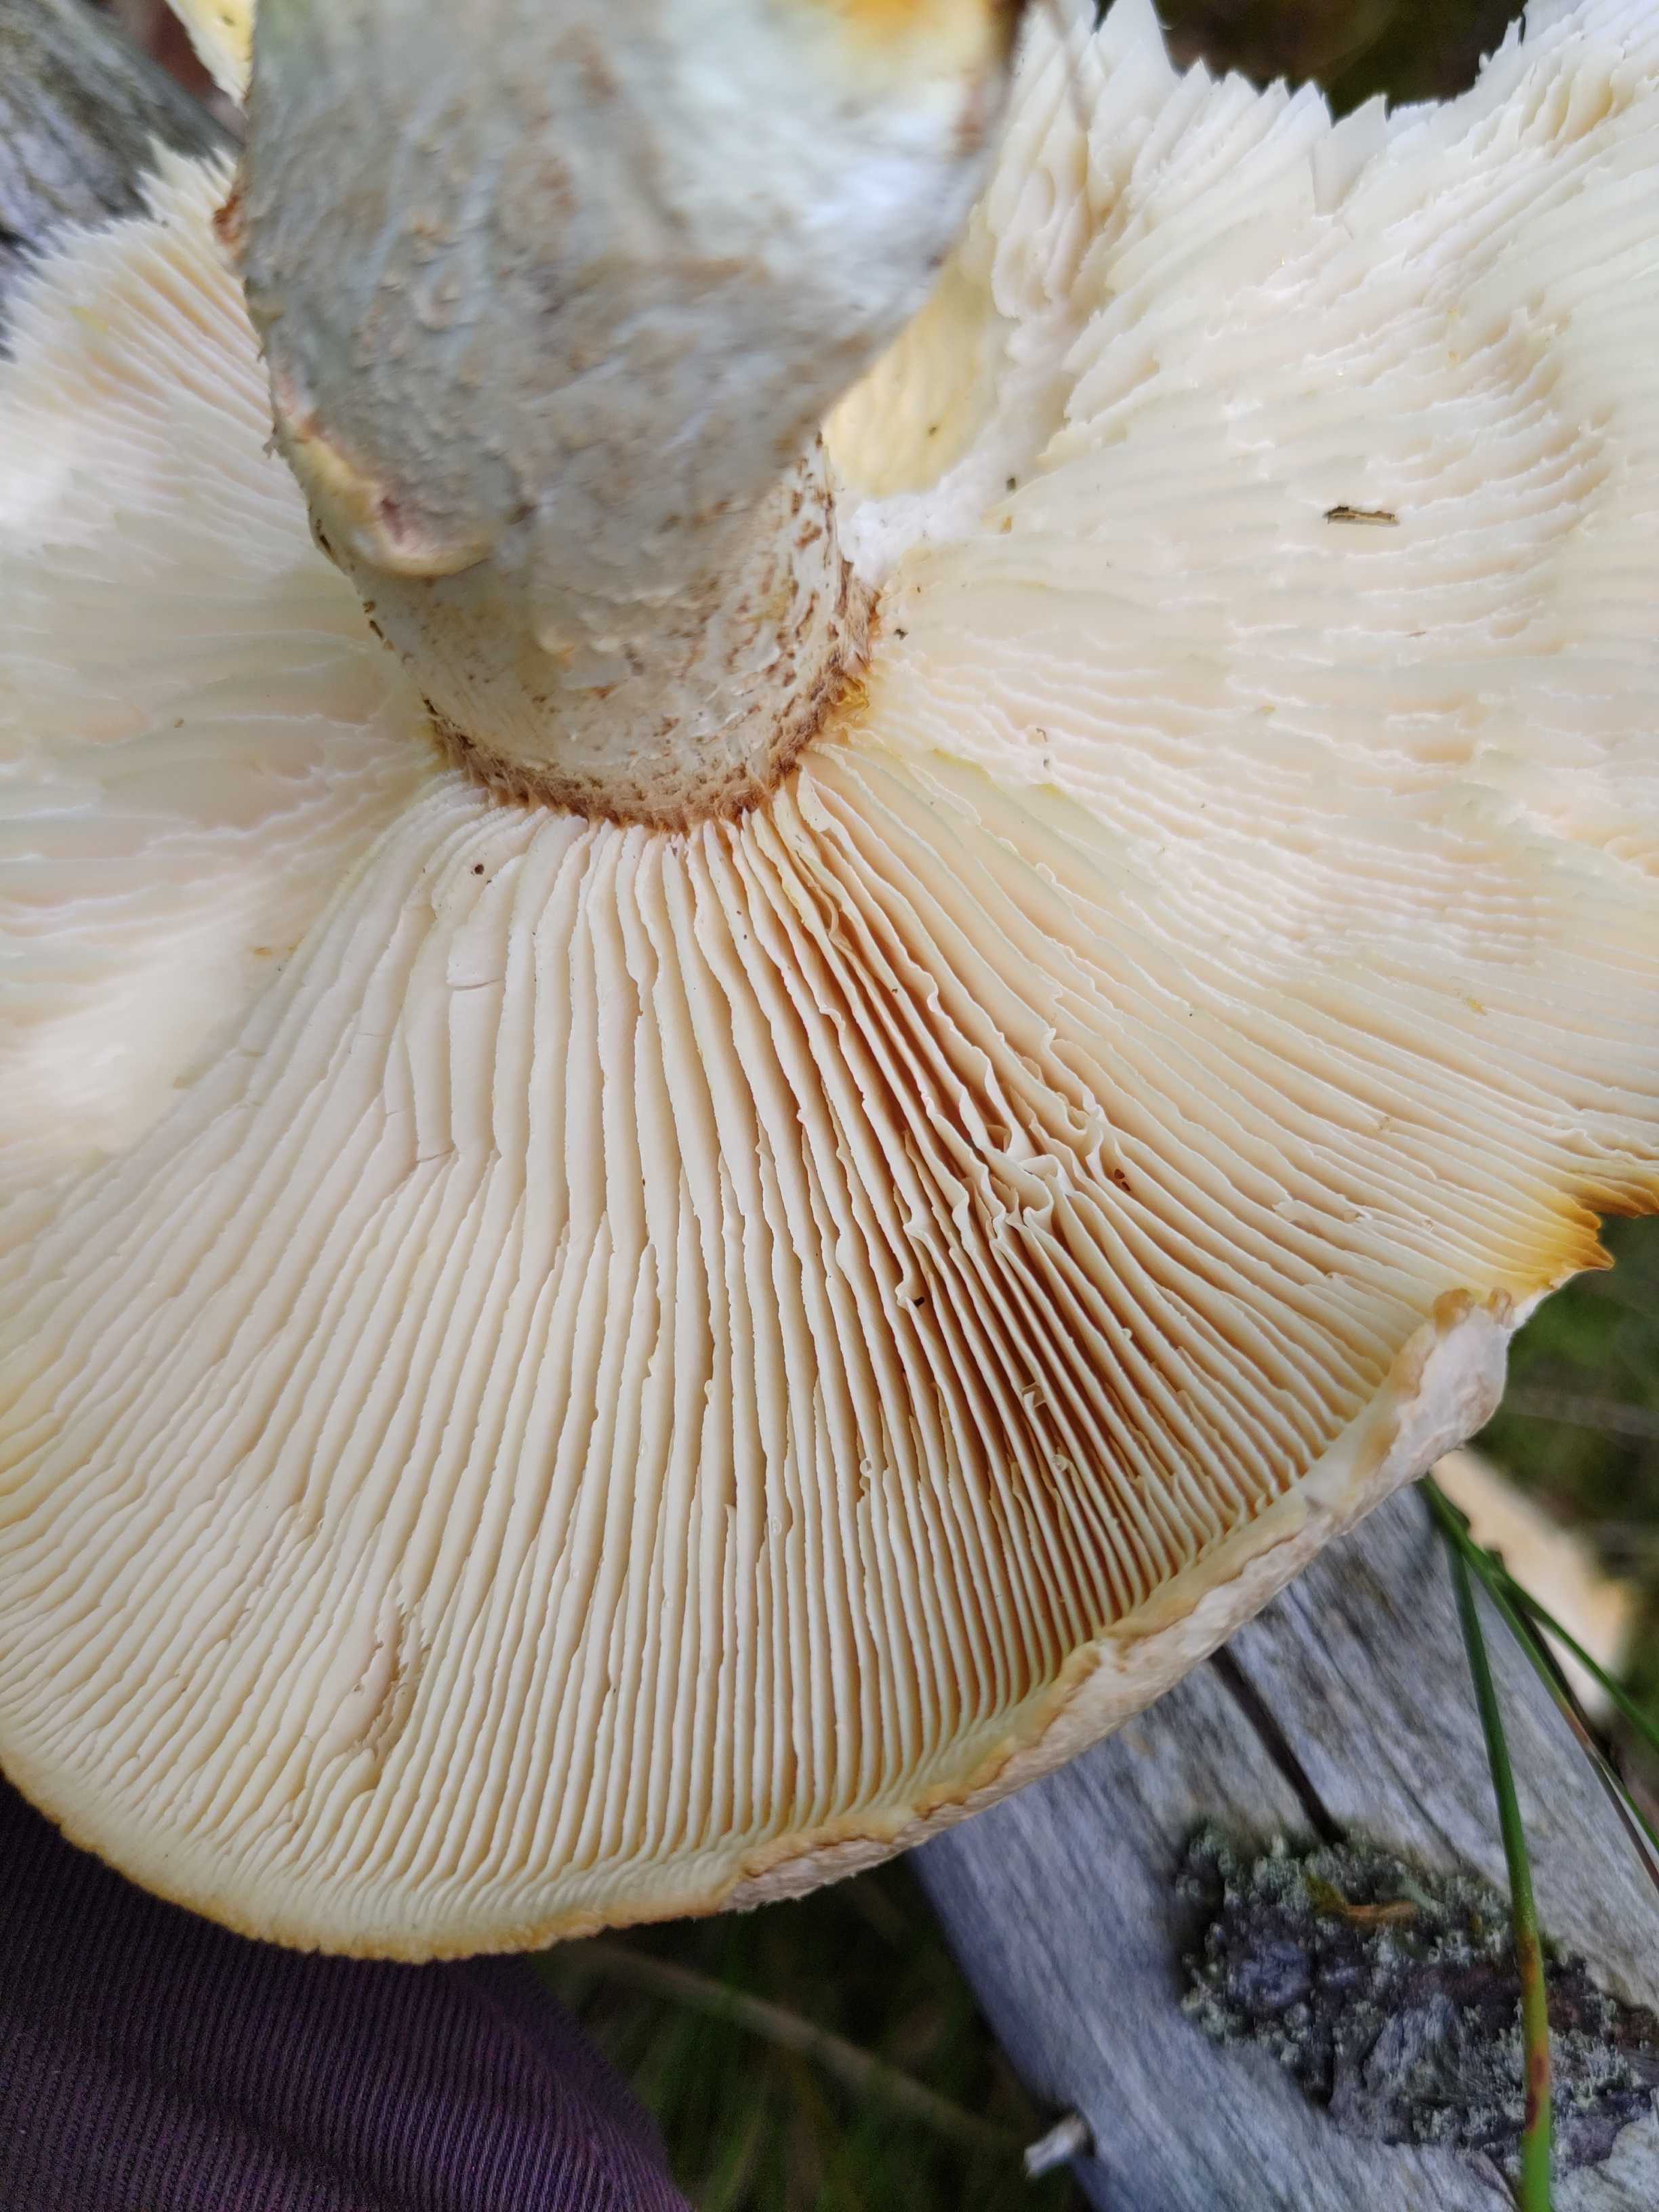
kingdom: Fungi
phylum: Basidiomycota
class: Agaricomycetes
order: Gloeophyllales
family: Gloeophyllaceae
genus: Neolentinus
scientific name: Neolentinus lepideus
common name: skællet sejhat
